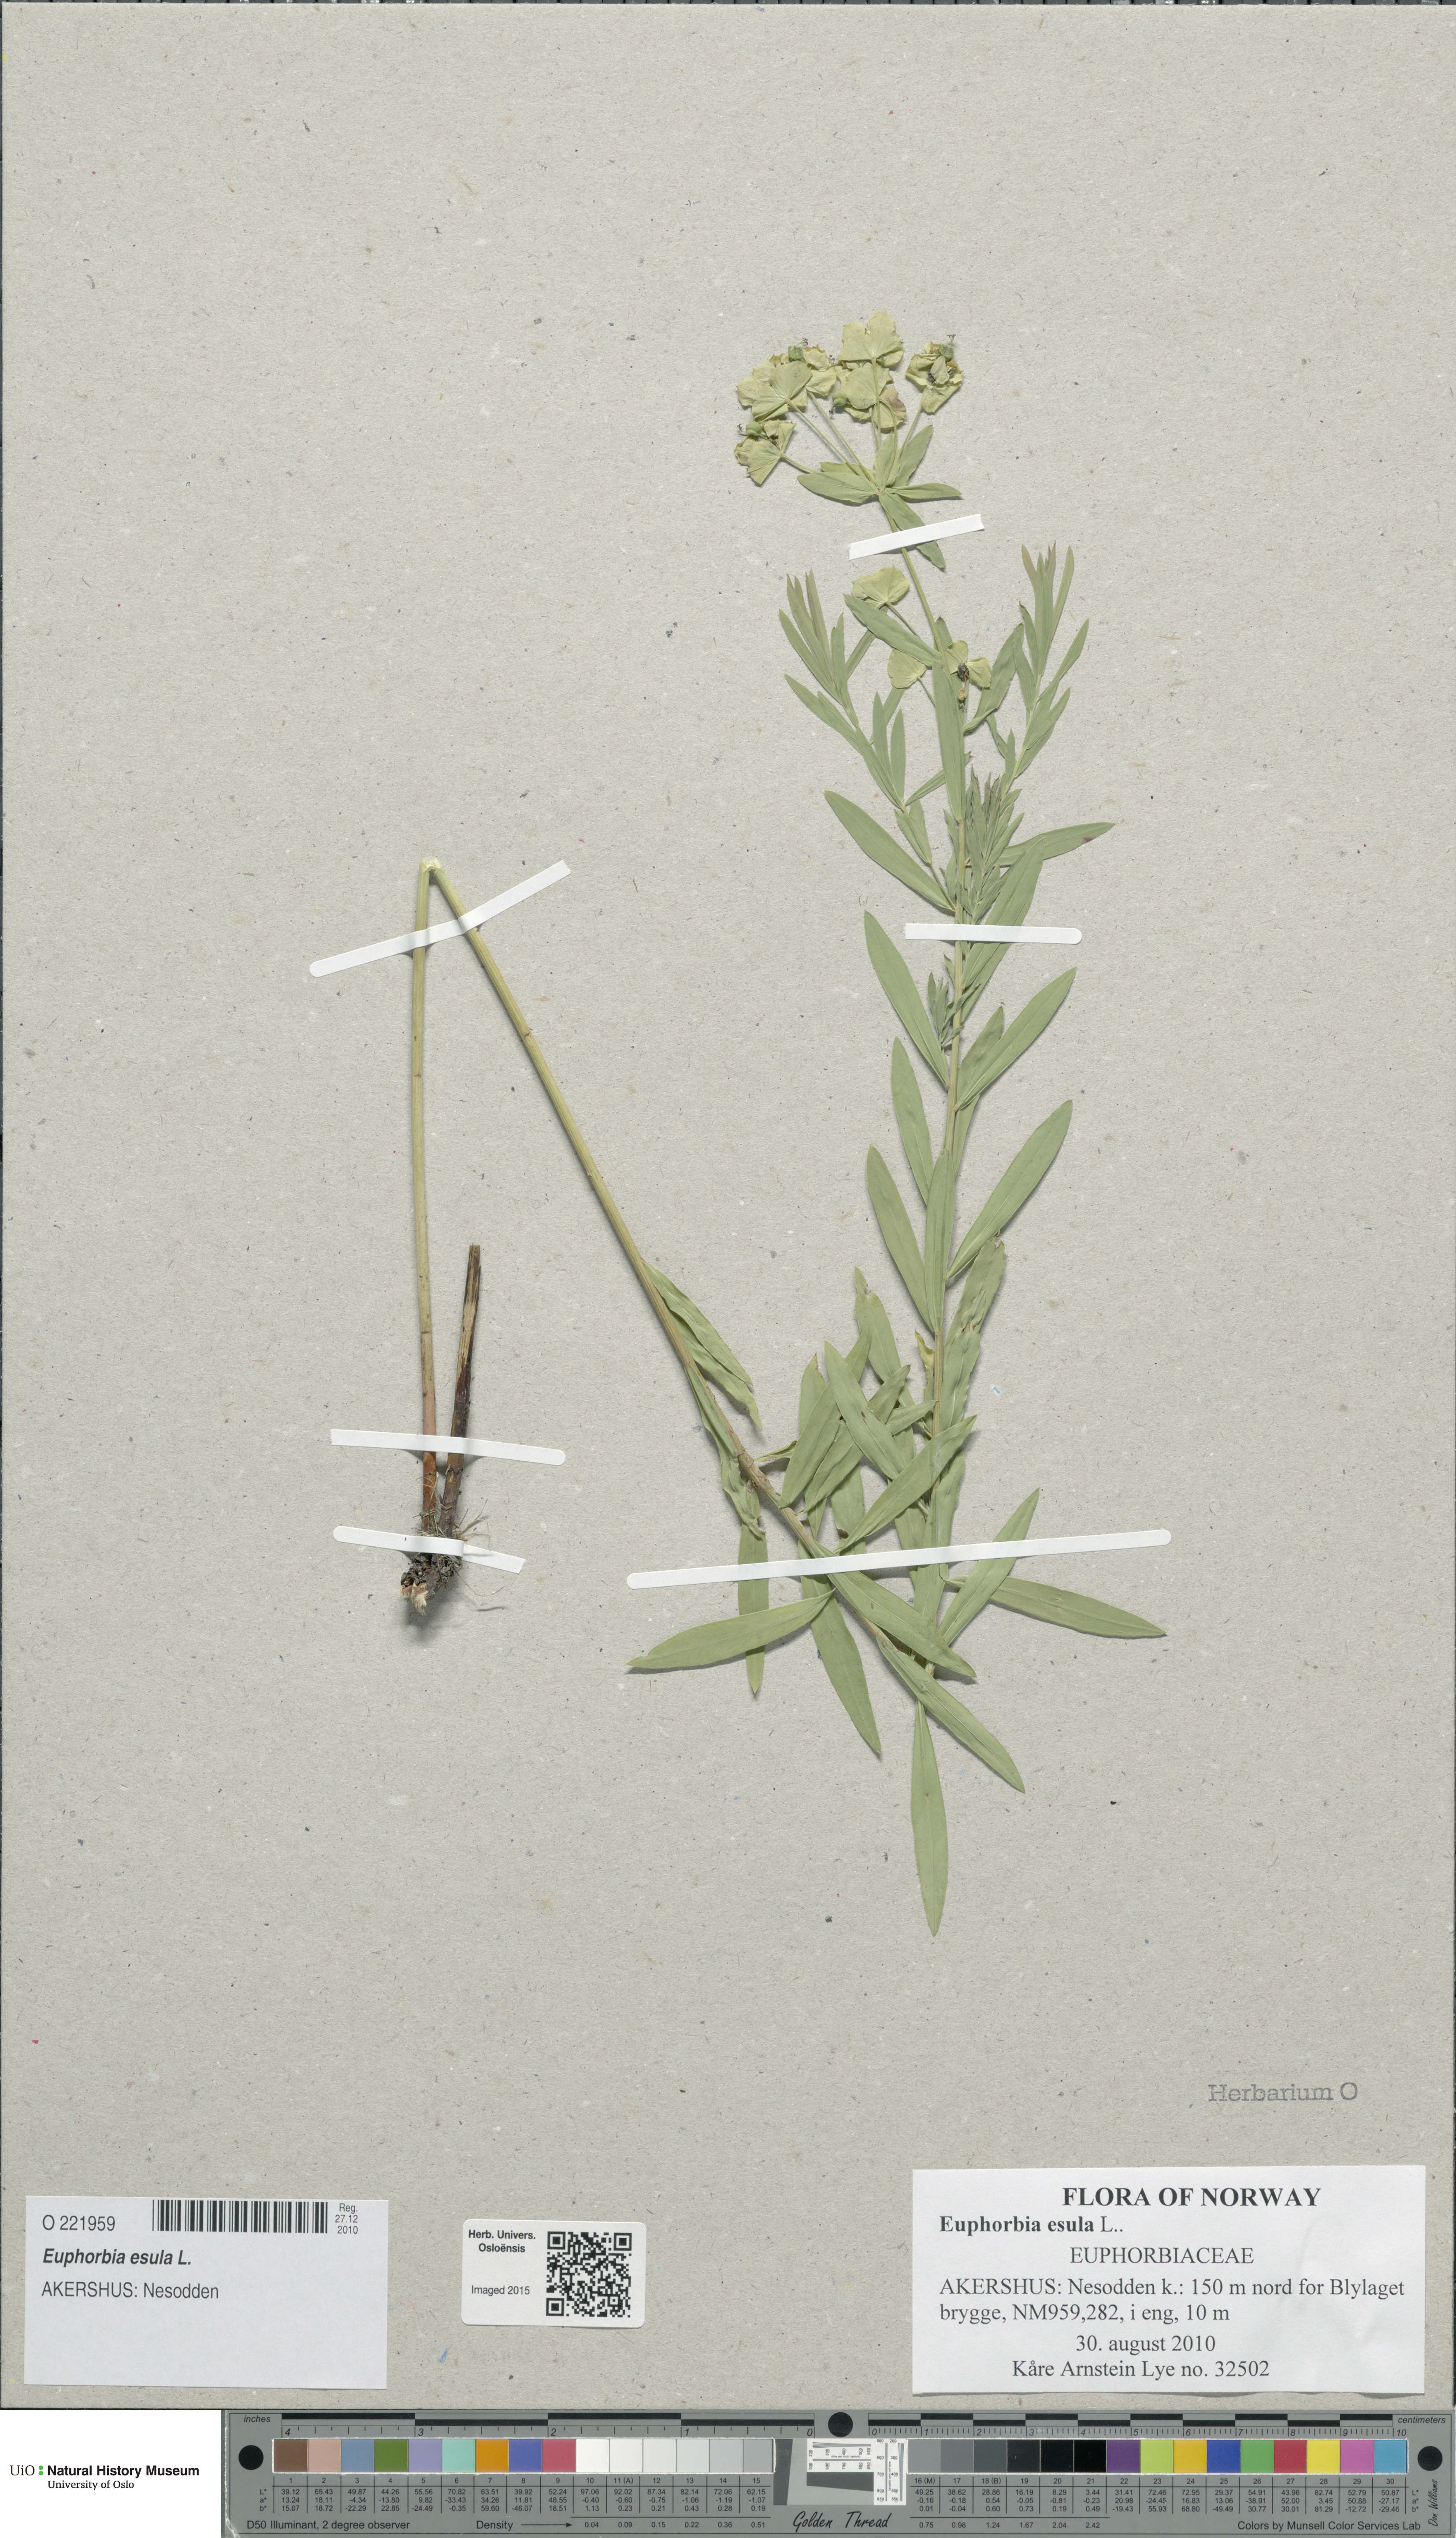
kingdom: Plantae
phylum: Tracheophyta
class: Magnoliopsida
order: Malpighiales
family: Euphorbiaceae
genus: Euphorbia
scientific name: Euphorbia esula
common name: Leafy spurge
